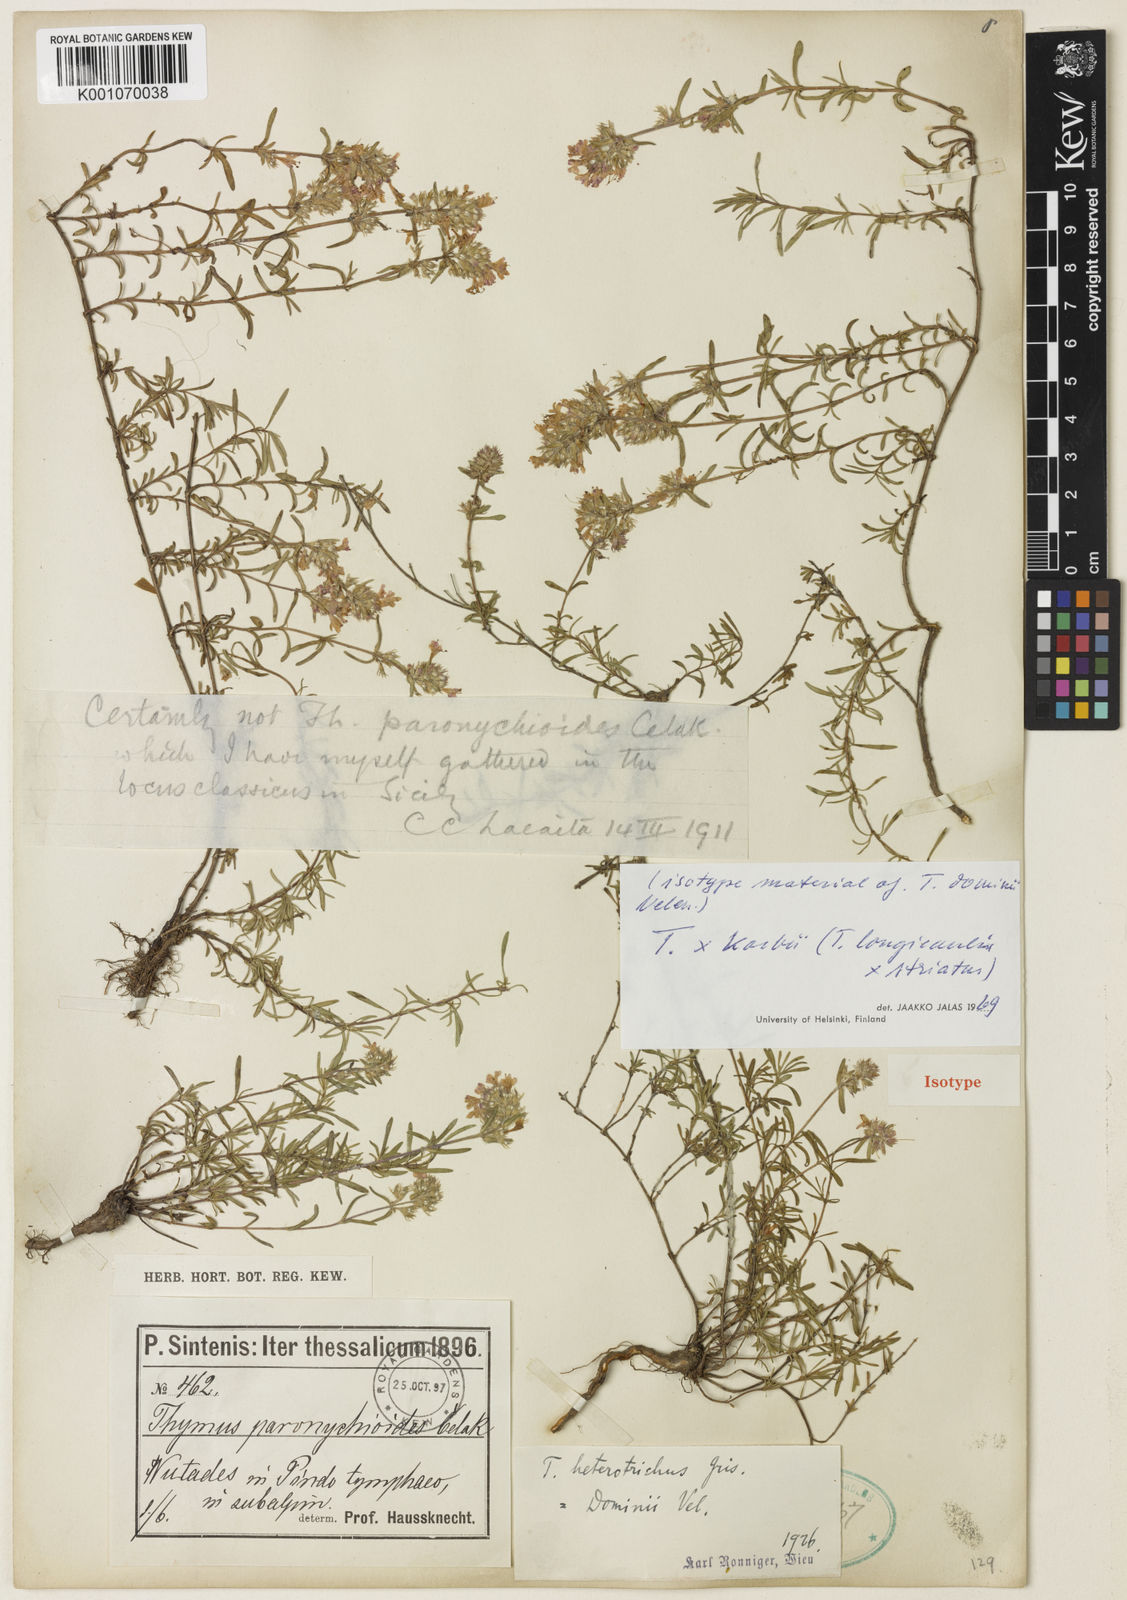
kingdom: Plantae
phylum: Tracheophyta
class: Magnoliopsida
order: Lamiales
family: Lamiaceae
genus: Thymus
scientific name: Thymus longicaulis
